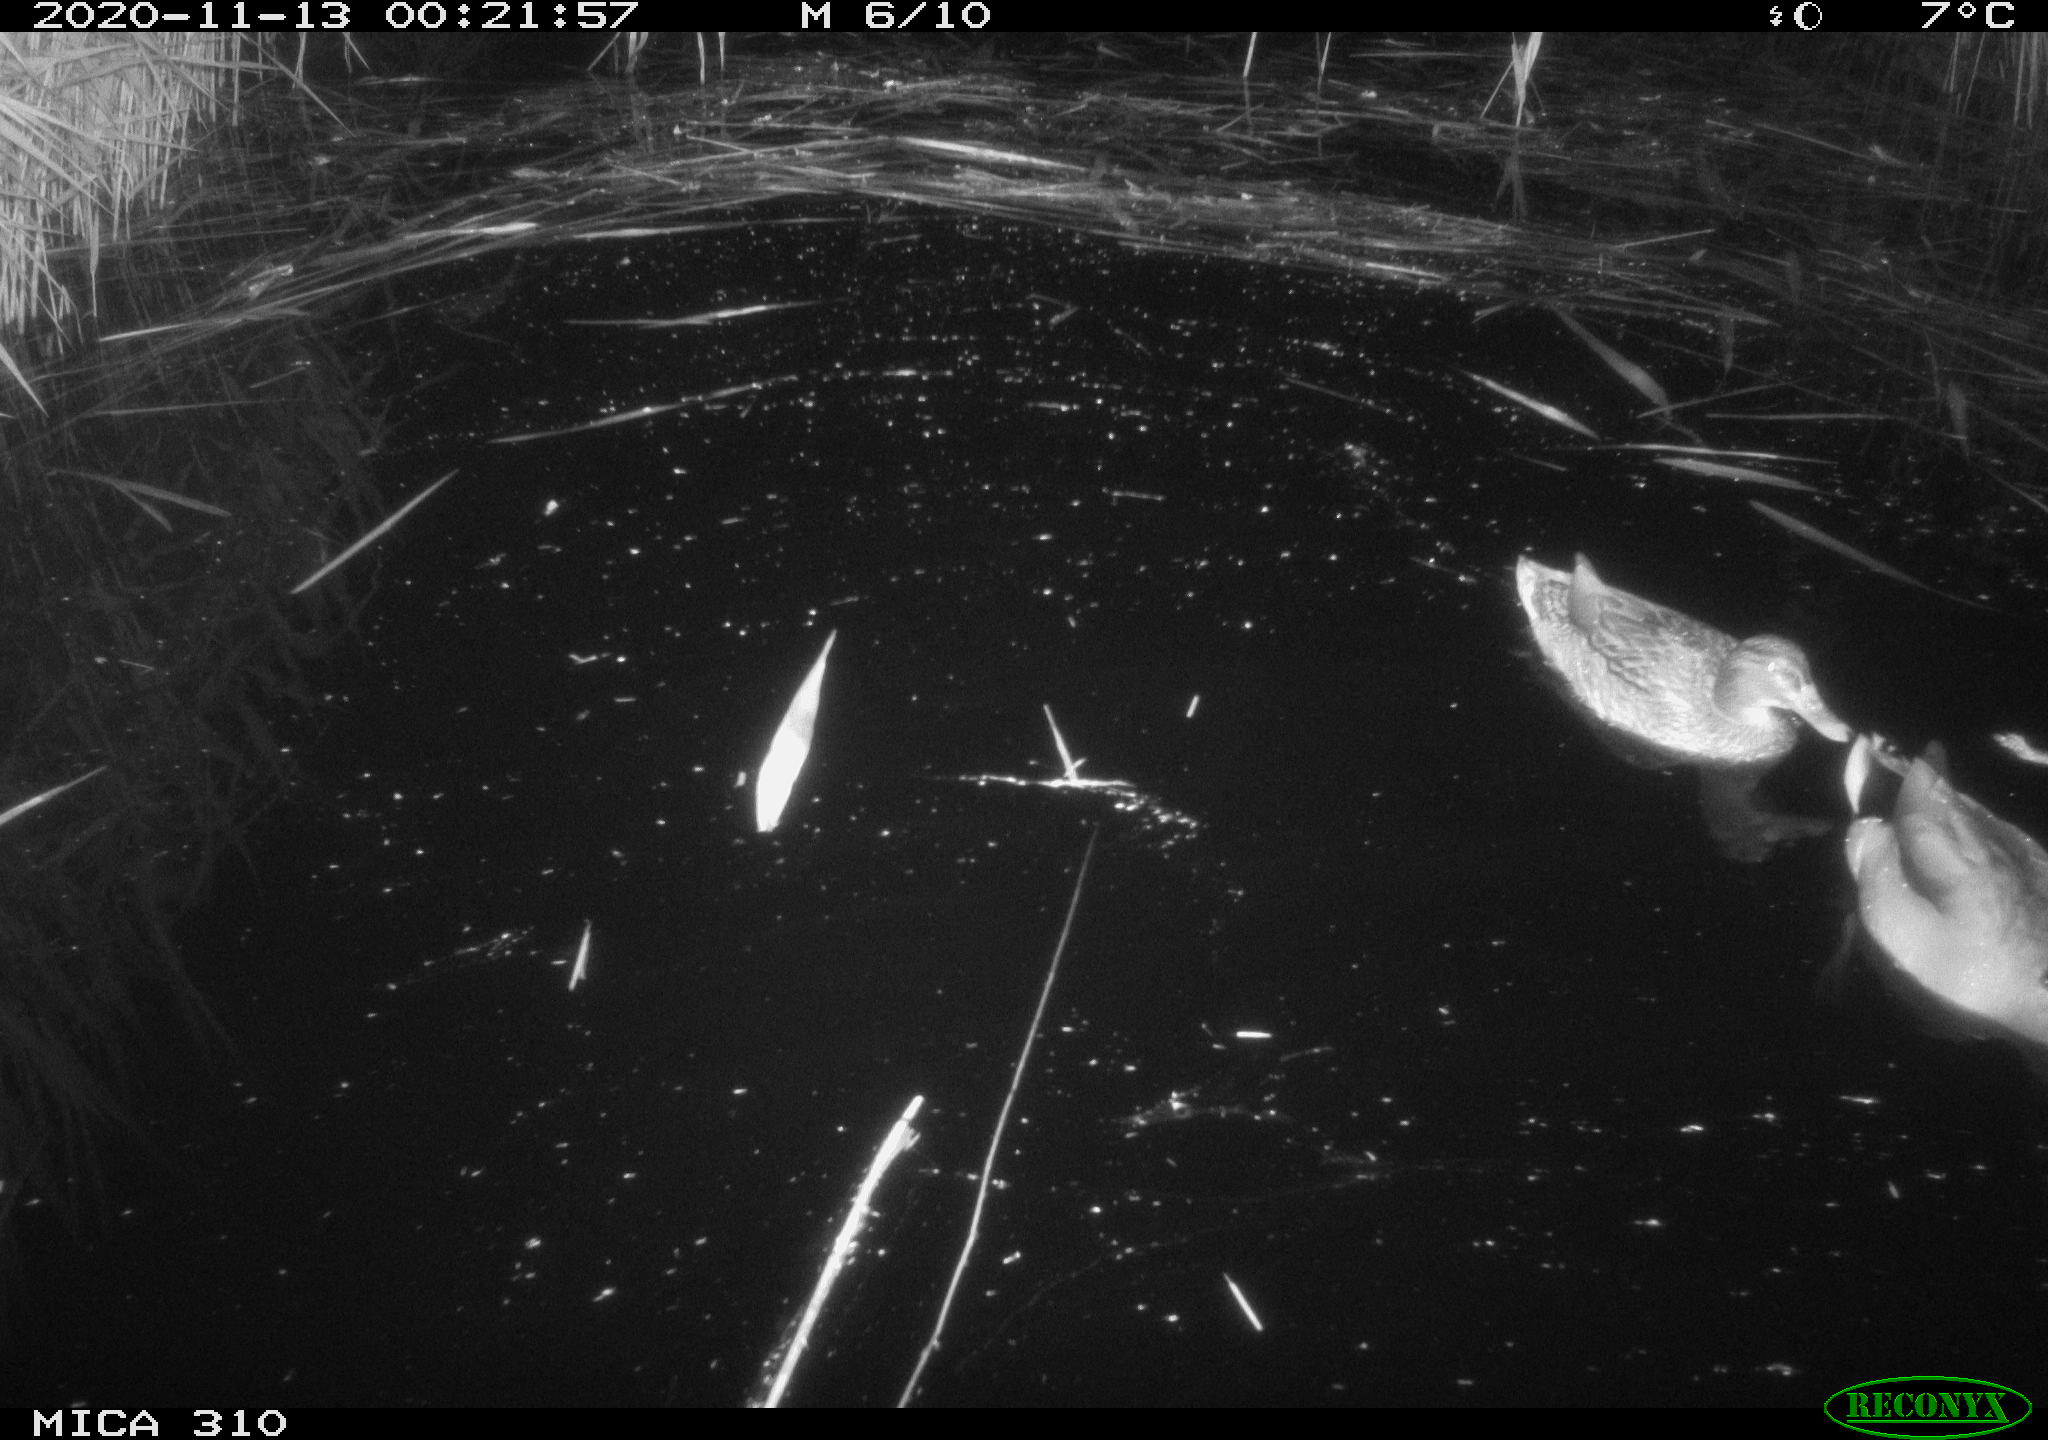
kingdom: Animalia
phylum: Chordata
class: Aves
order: Gruiformes
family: Rallidae
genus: Gallinula
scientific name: Gallinula chloropus
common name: Common moorhen
